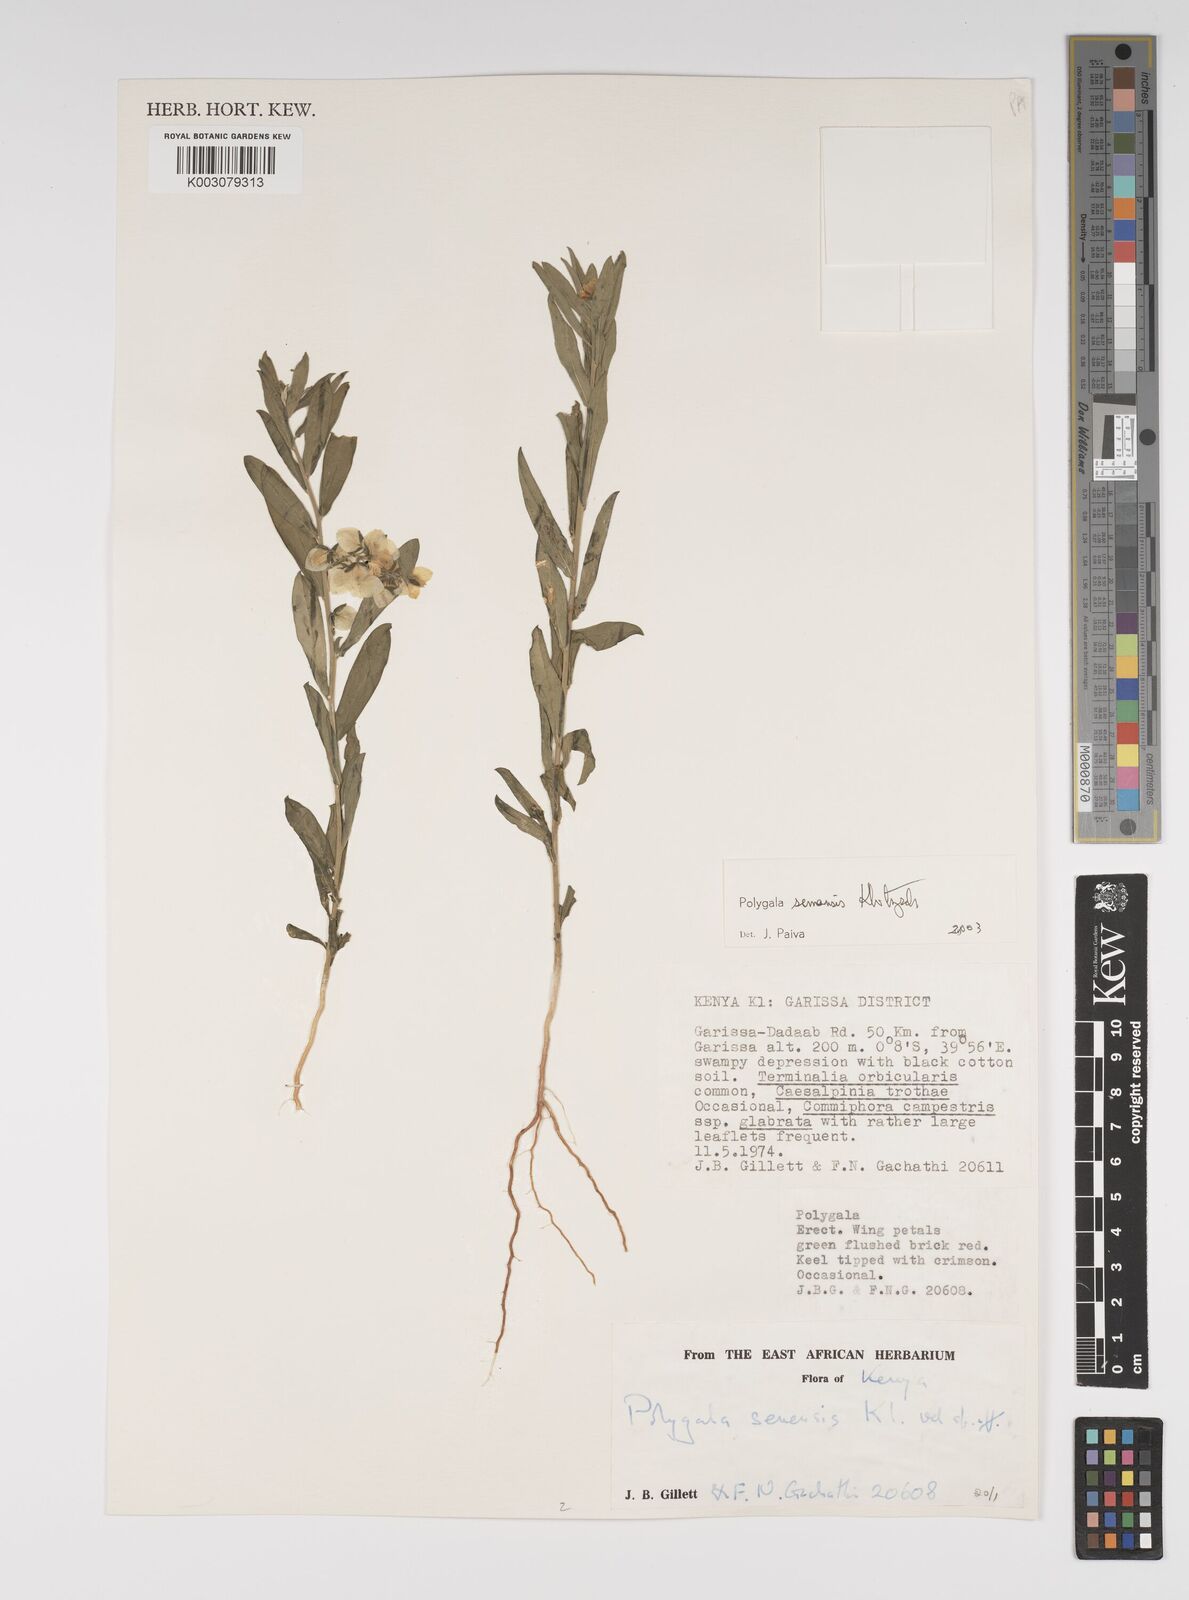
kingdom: Plantae
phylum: Tracheophyta
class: Magnoliopsida
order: Fabales
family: Polygalaceae
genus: Polygala
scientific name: Polygala senensis
